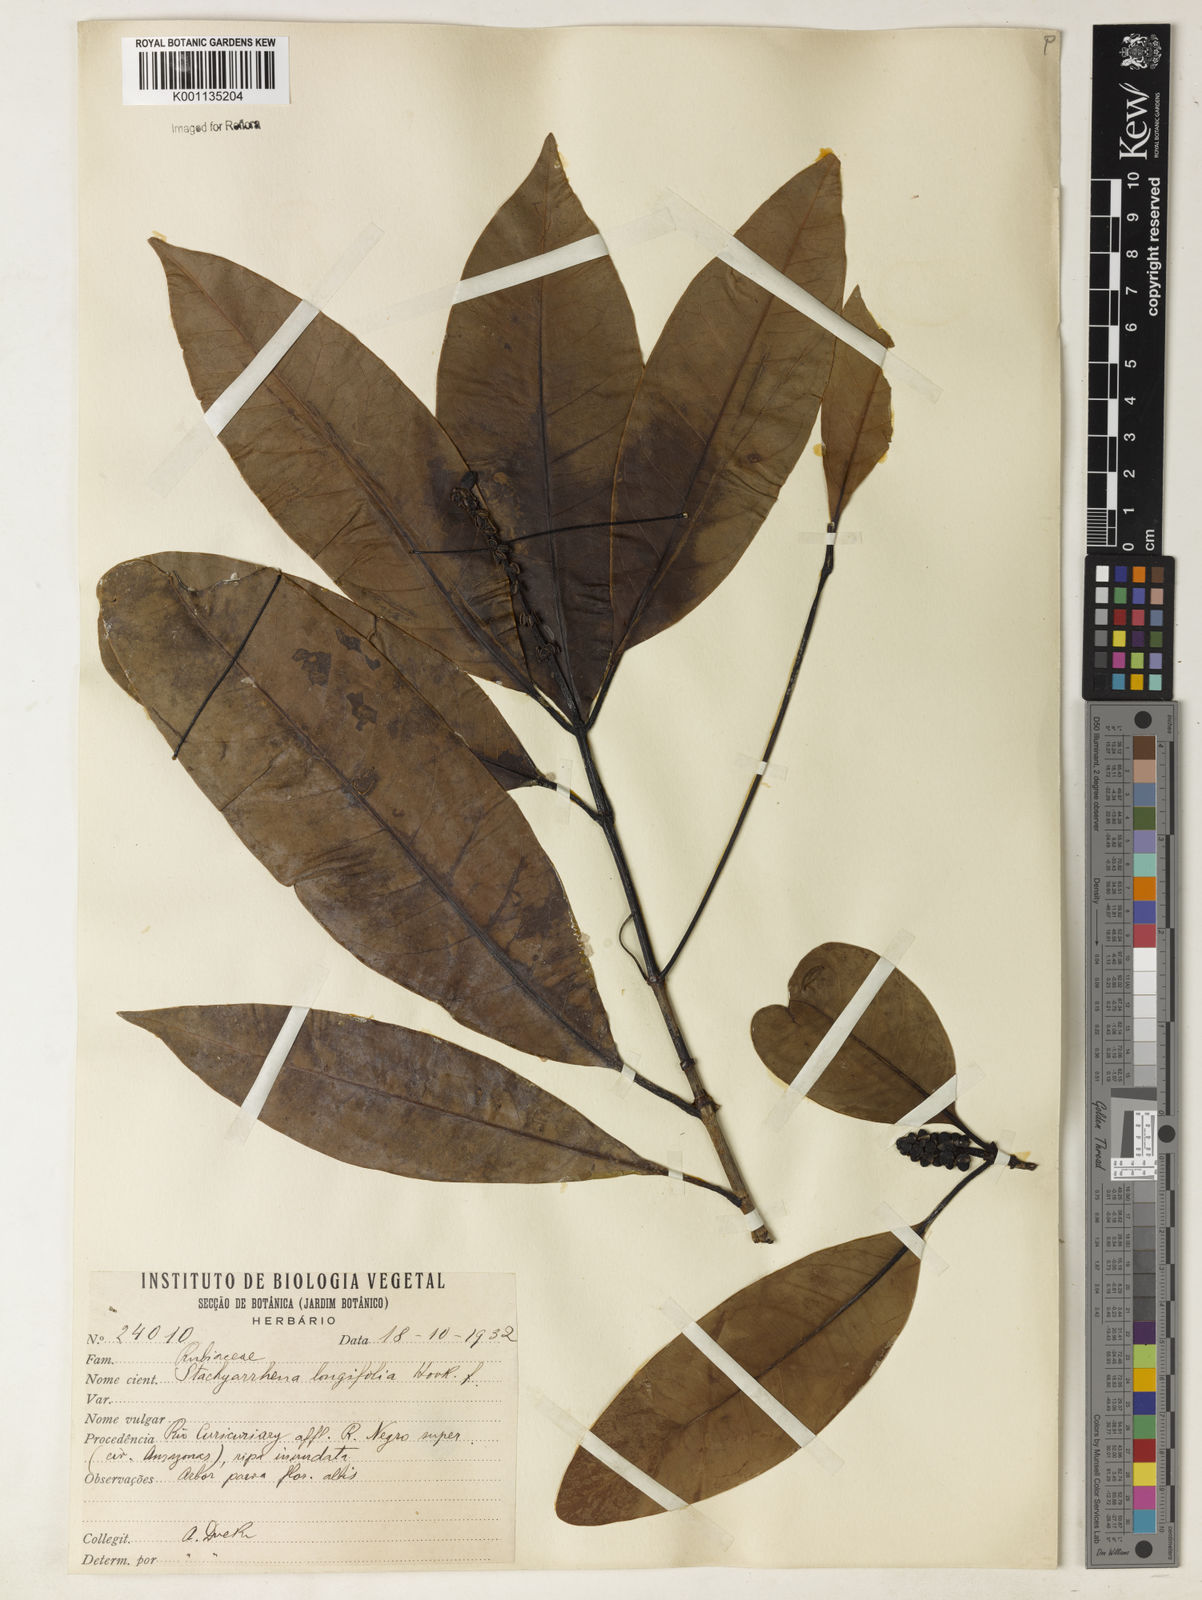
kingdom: Plantae
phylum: Tracheophyta
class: Magnoliopsida
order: Gentianales
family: Rubiaceae
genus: Stachyarrhena
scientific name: Stachyarrhena spicata
